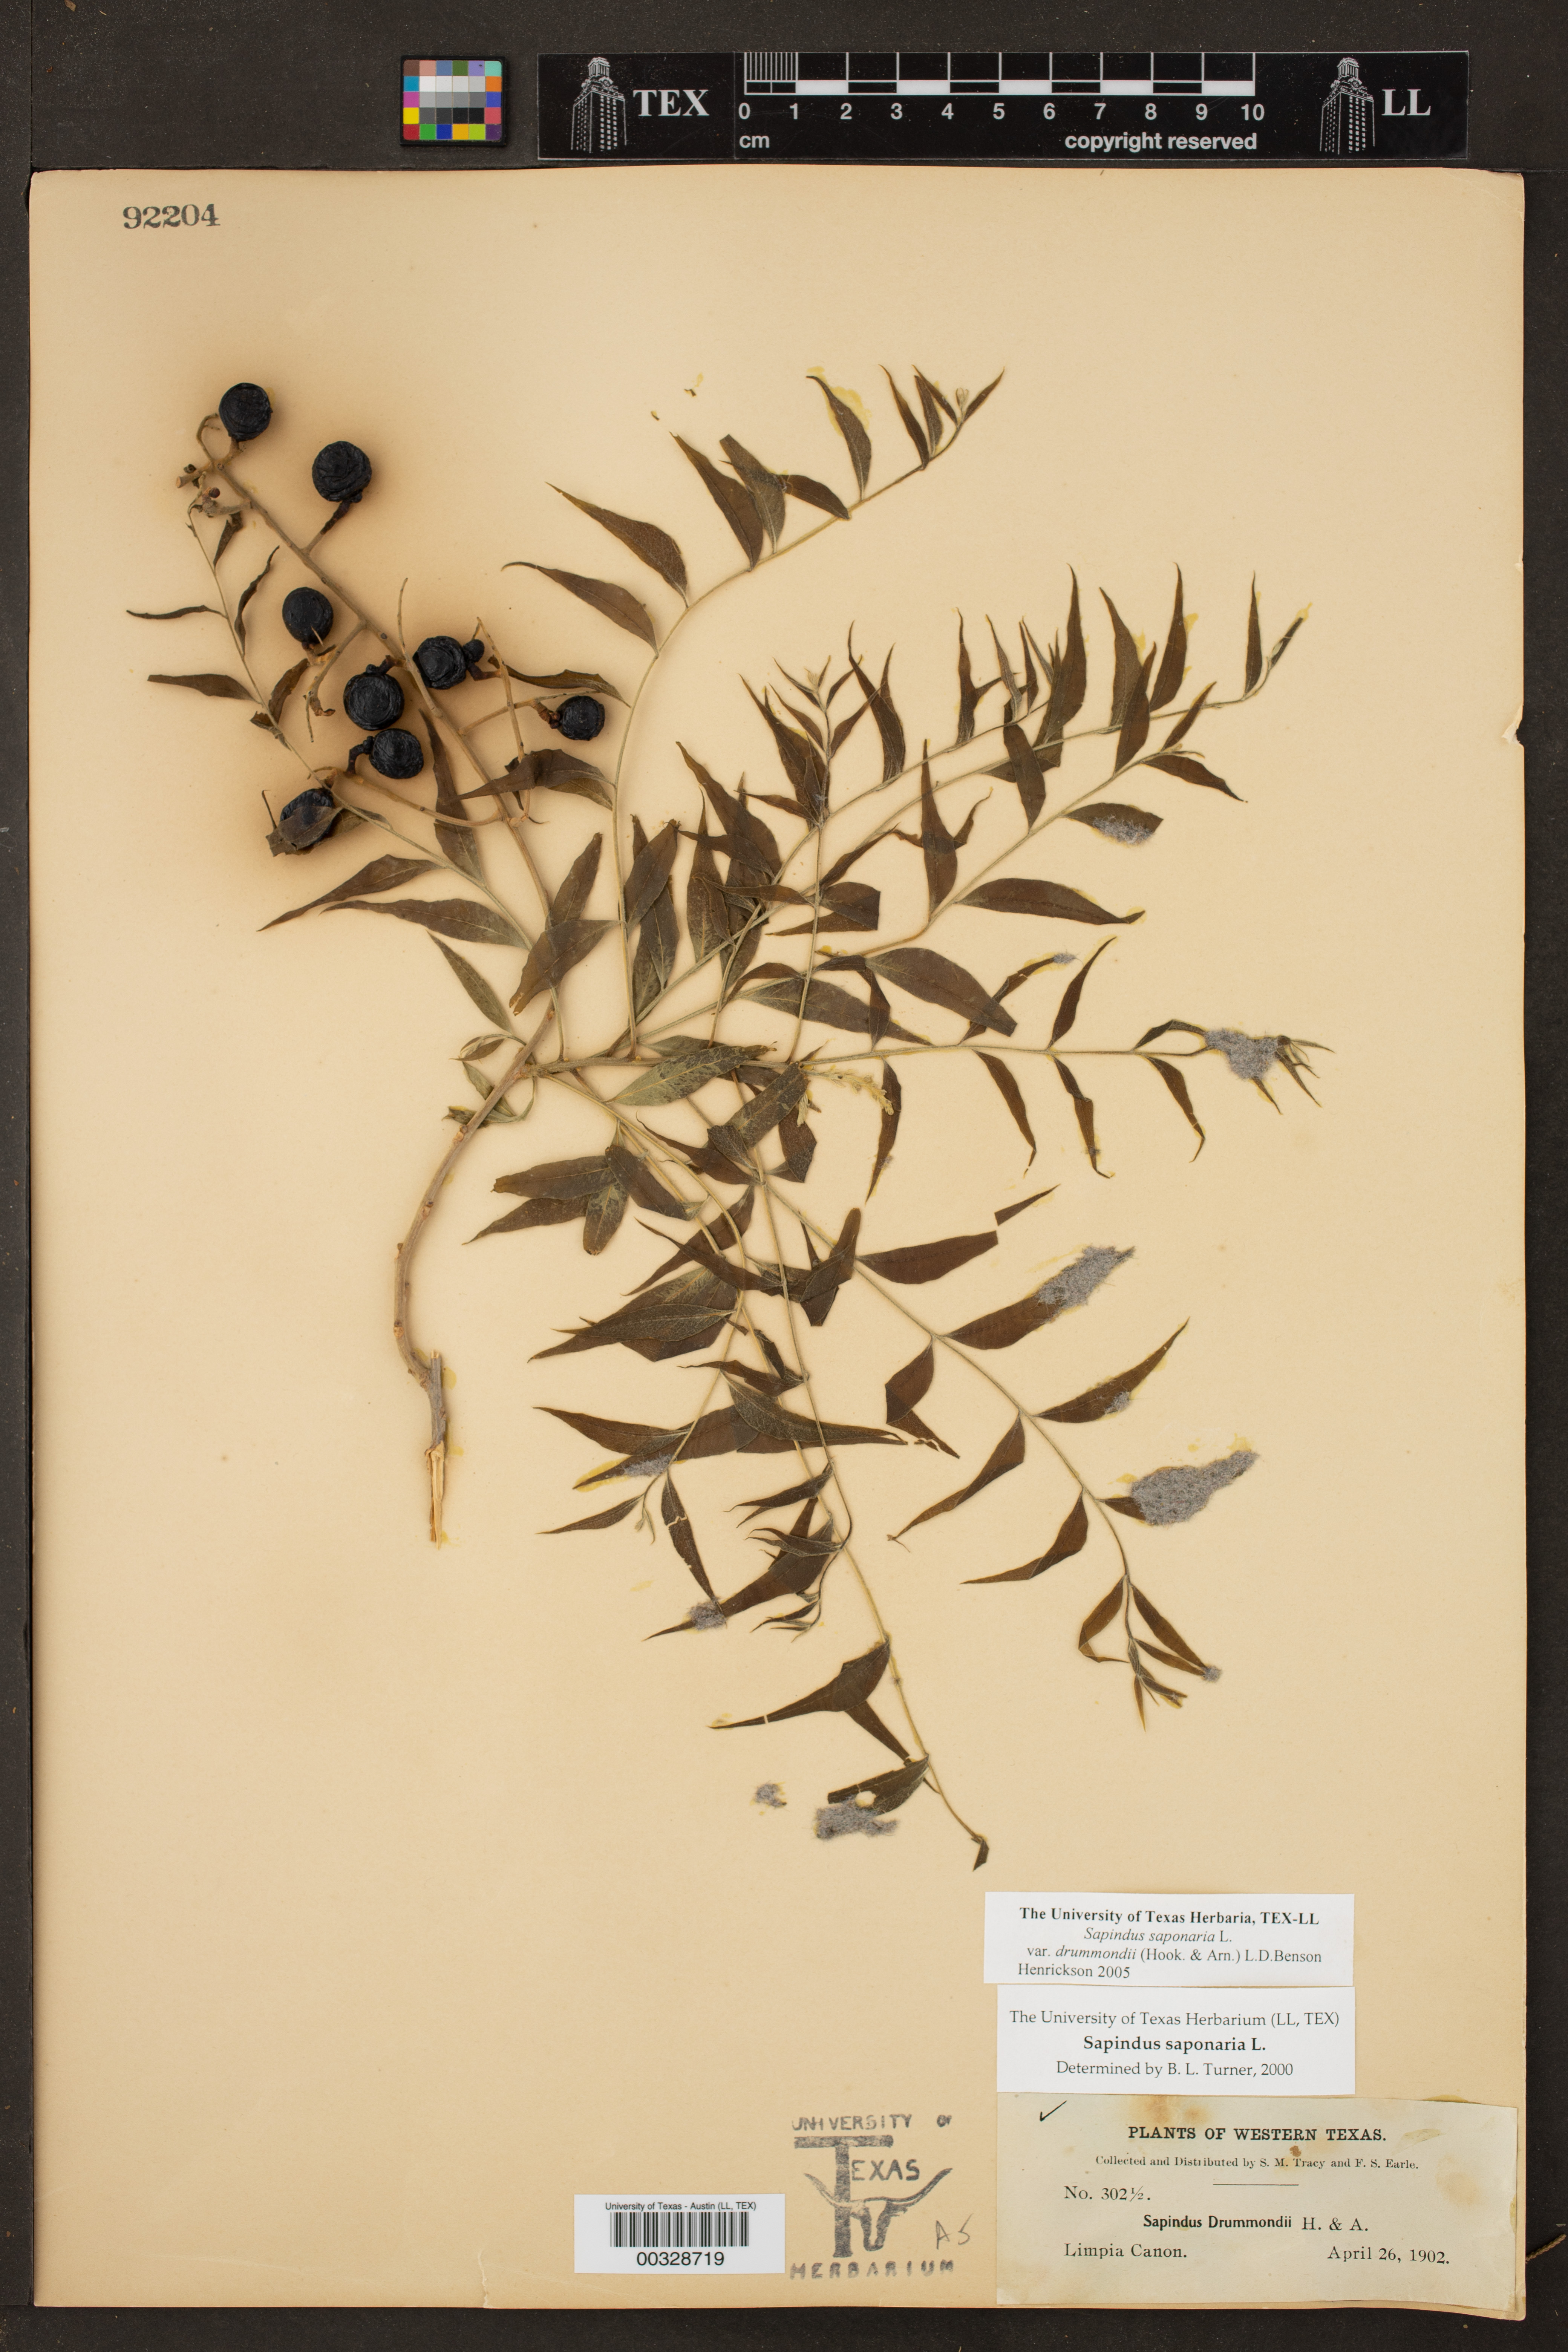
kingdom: Plantae
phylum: Tracheophyta
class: Magnoliopsida
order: Sapindales
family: Sapindaceae
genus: Sapindus
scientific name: Sapindus drummondii
